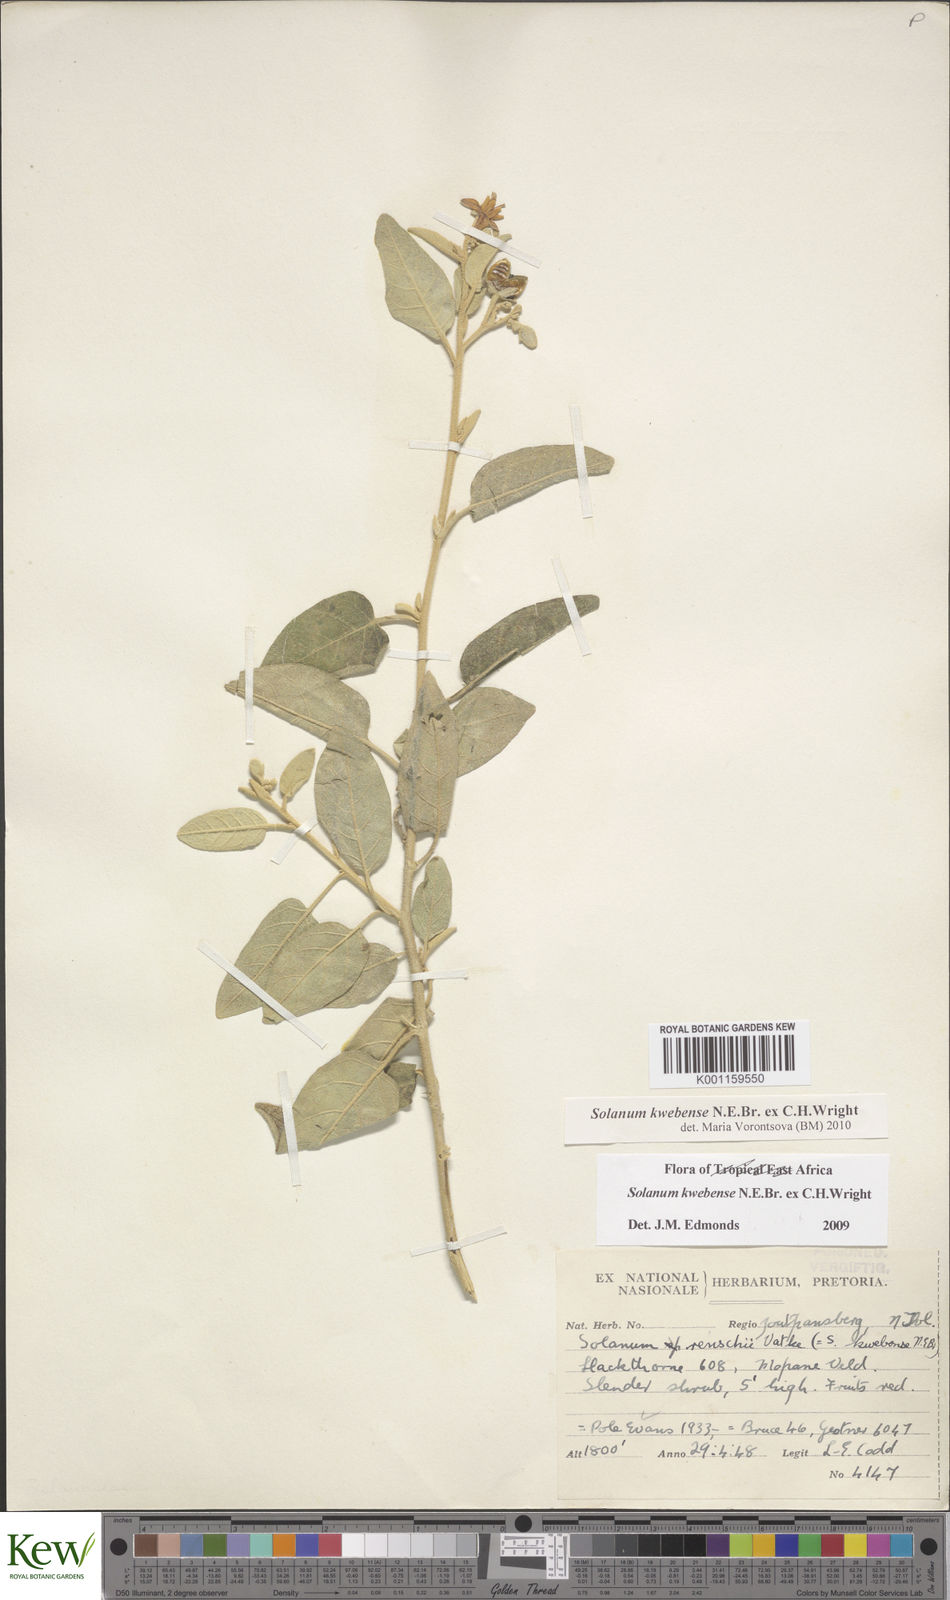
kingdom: Plantae
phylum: Tracheophyta
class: Magnoliopsida
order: Solanales
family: Solanaceae
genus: Solanum
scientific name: Solanum tettense
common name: Mozambique bitter apple
